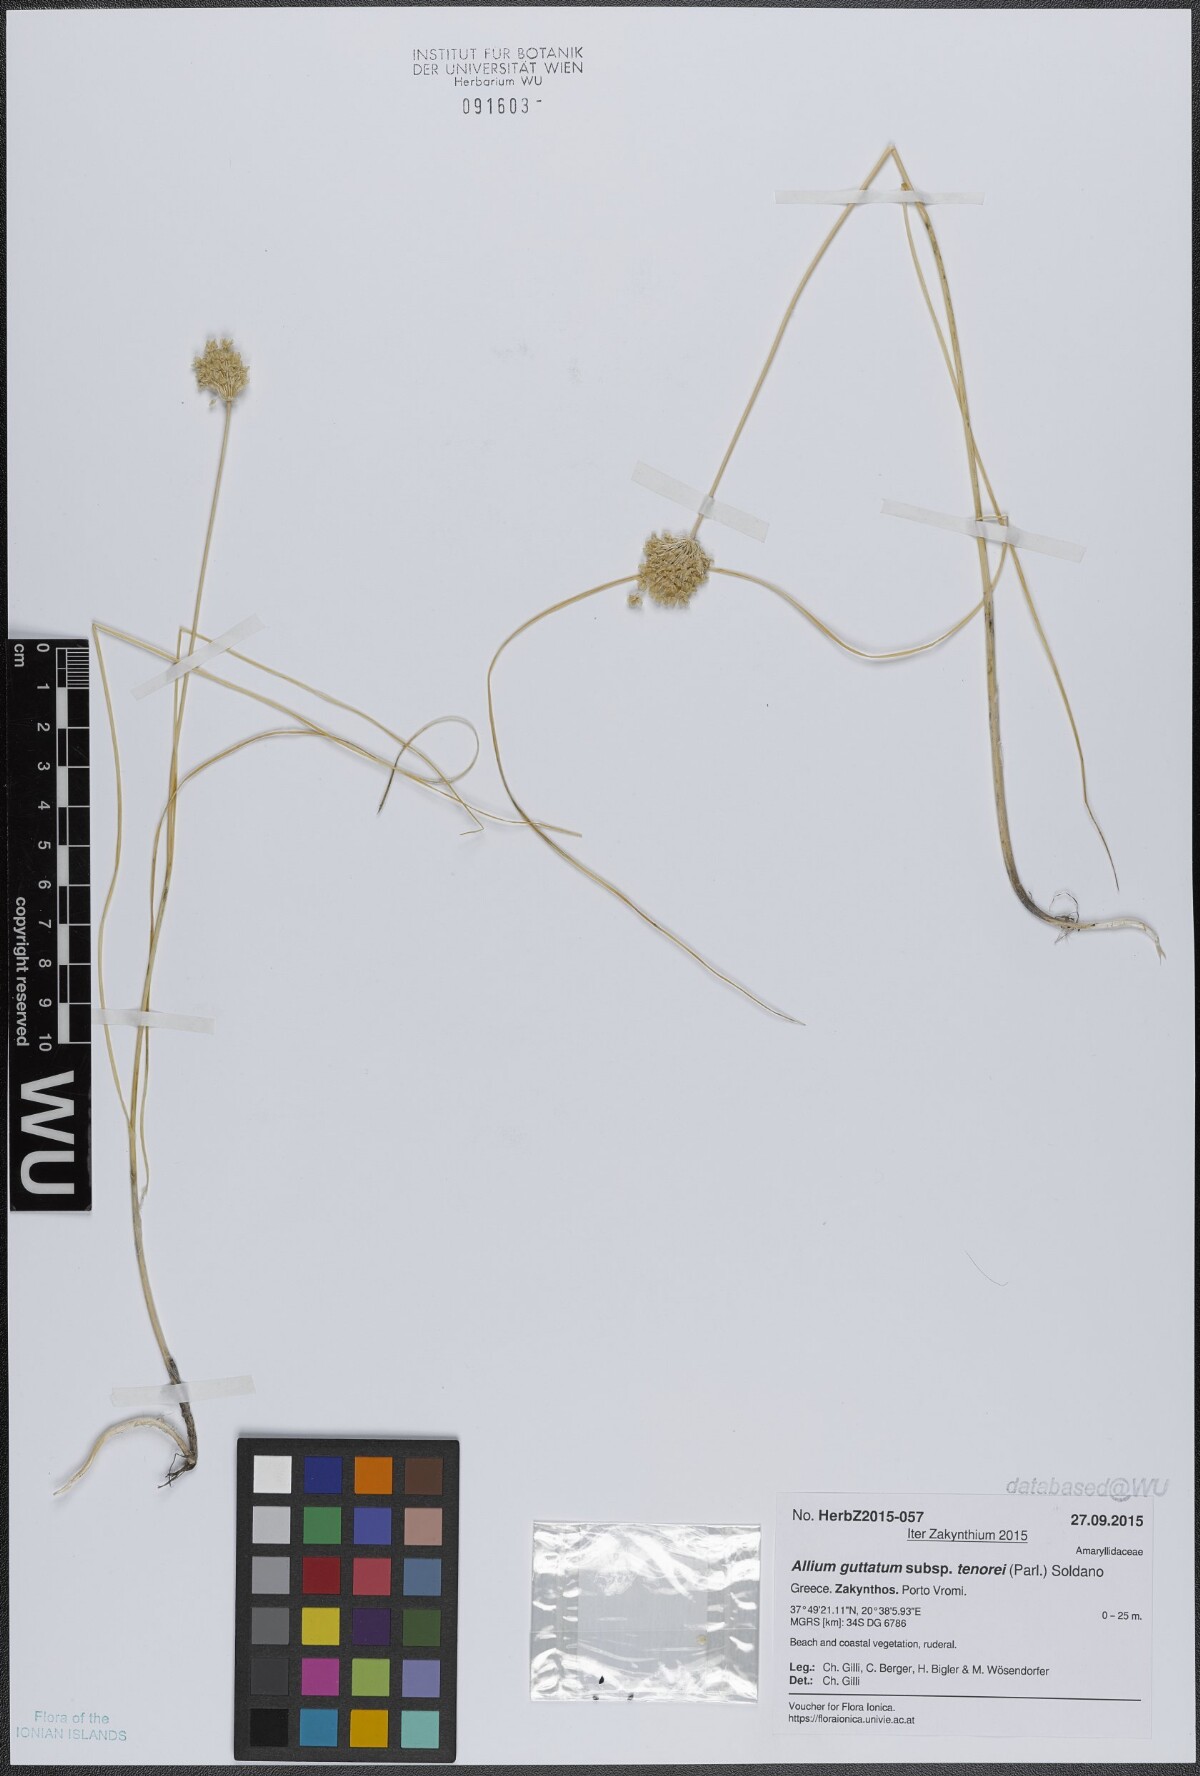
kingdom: Plantae
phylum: Tracheophyta
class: Liliopsida
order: Asparagales
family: Amaryllidaceae
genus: Allium
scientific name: Allium sardoum
